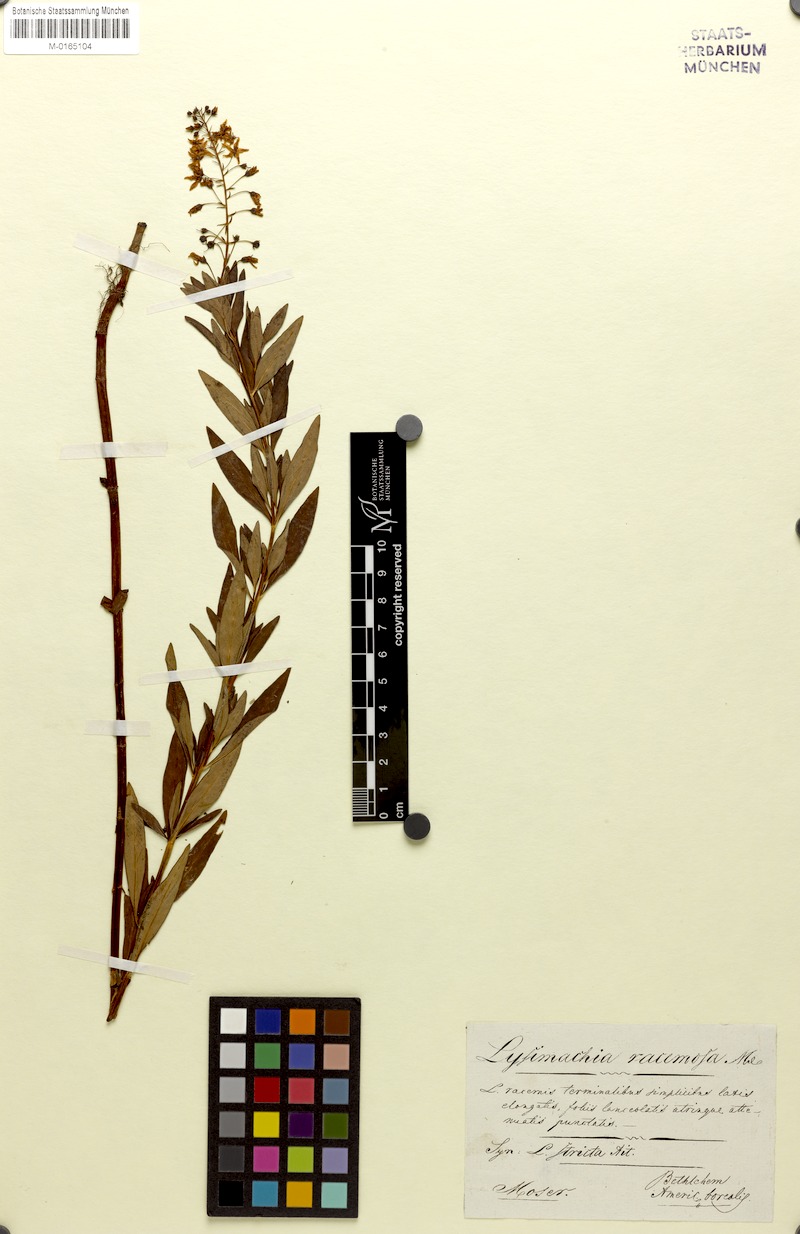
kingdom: Plantae
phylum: Tracheophyta
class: Magnoliopsida
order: Ericales
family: Primulaceae
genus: Lysimachia
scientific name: Lysimachia terrestris
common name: Lake loosestrife
